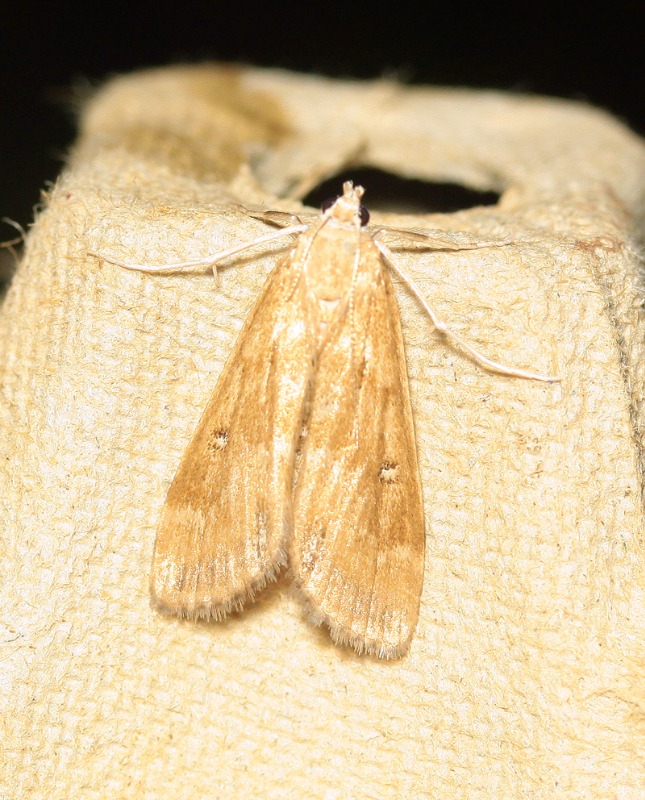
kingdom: Animalia
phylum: Arthropoda
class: Insecta
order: Lepidoptera
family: Crambidae
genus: Parapoynx
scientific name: Parapoynx stratiotata
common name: Vandpesthalvmøl
